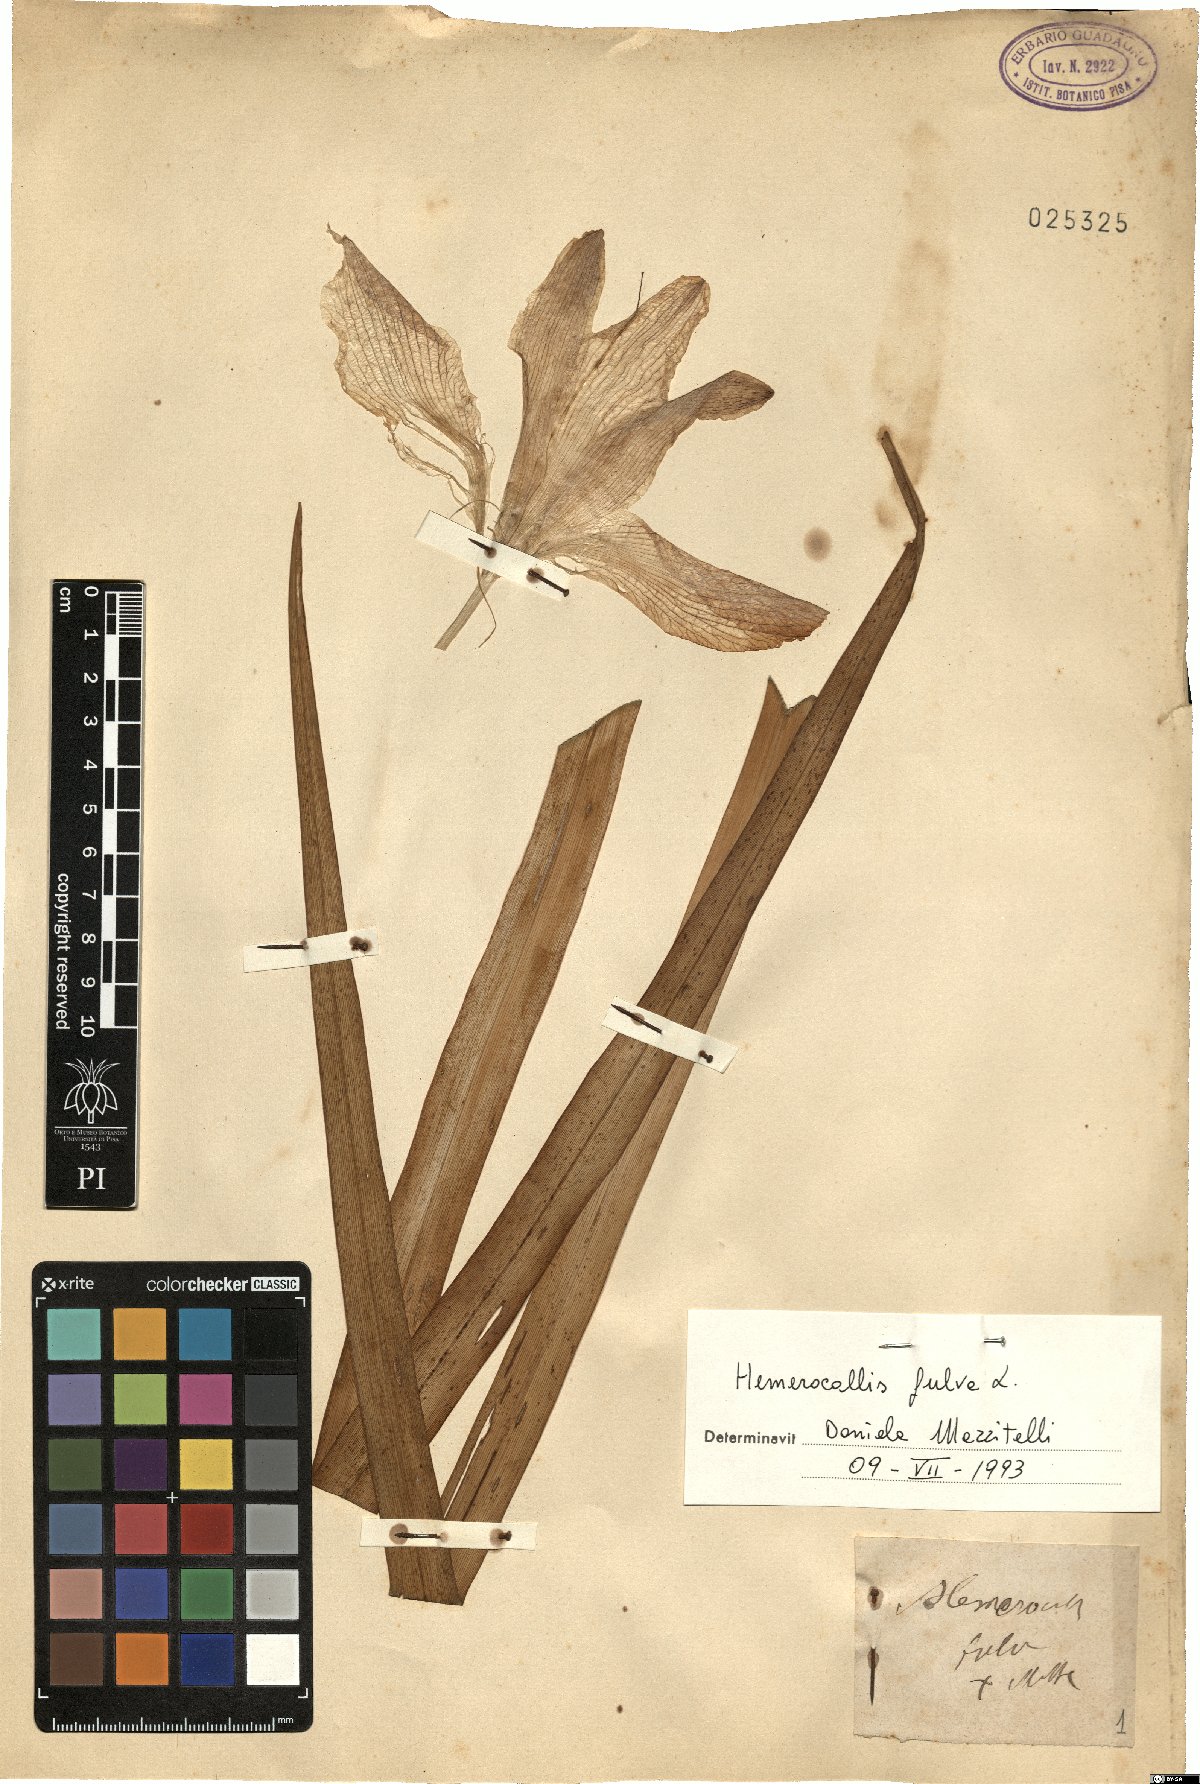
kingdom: Plantae
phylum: Tracheophyta
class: Liliopsida
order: Asparagales
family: Asphodelaceae
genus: Hemerocallis
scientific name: Hemerocallis fulva
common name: Orange day-lily
